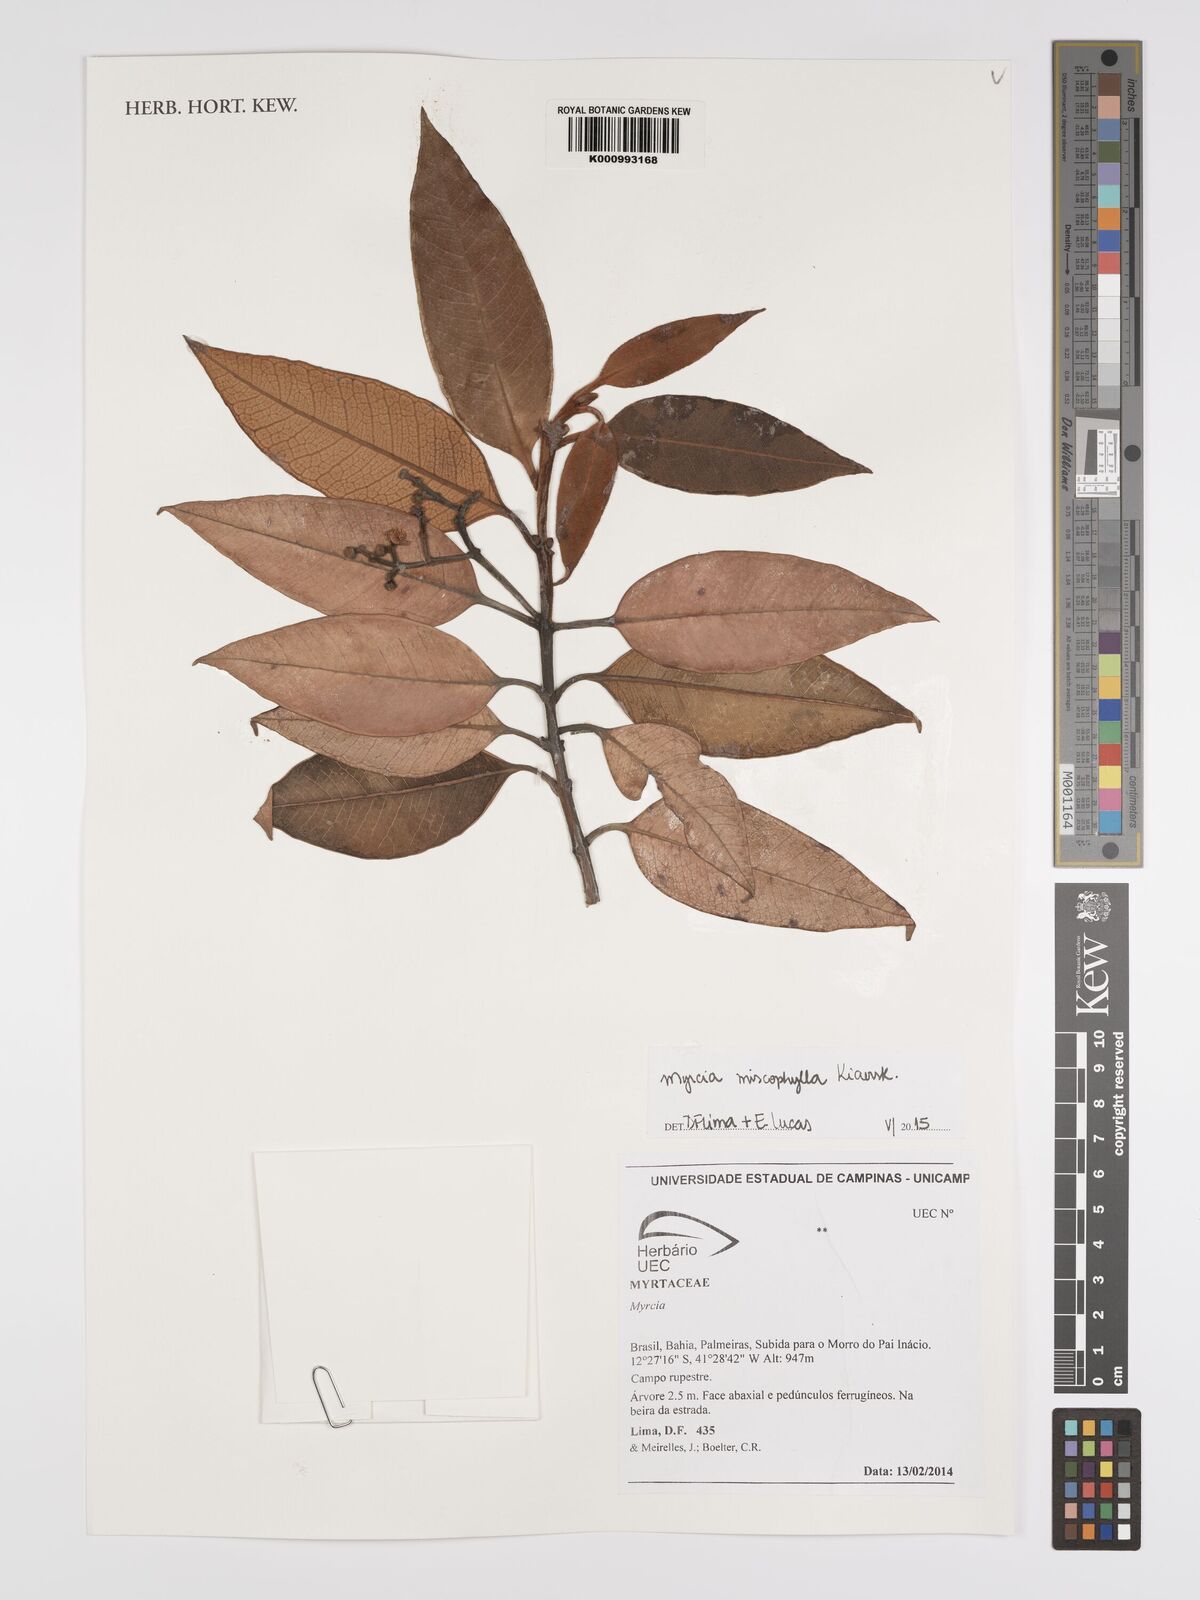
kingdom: Plantae
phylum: Tracheophyta
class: Magnoliopsida
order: Myrtales
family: Myrtaceae
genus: Myrcia
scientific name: Myrcia mischophylla
